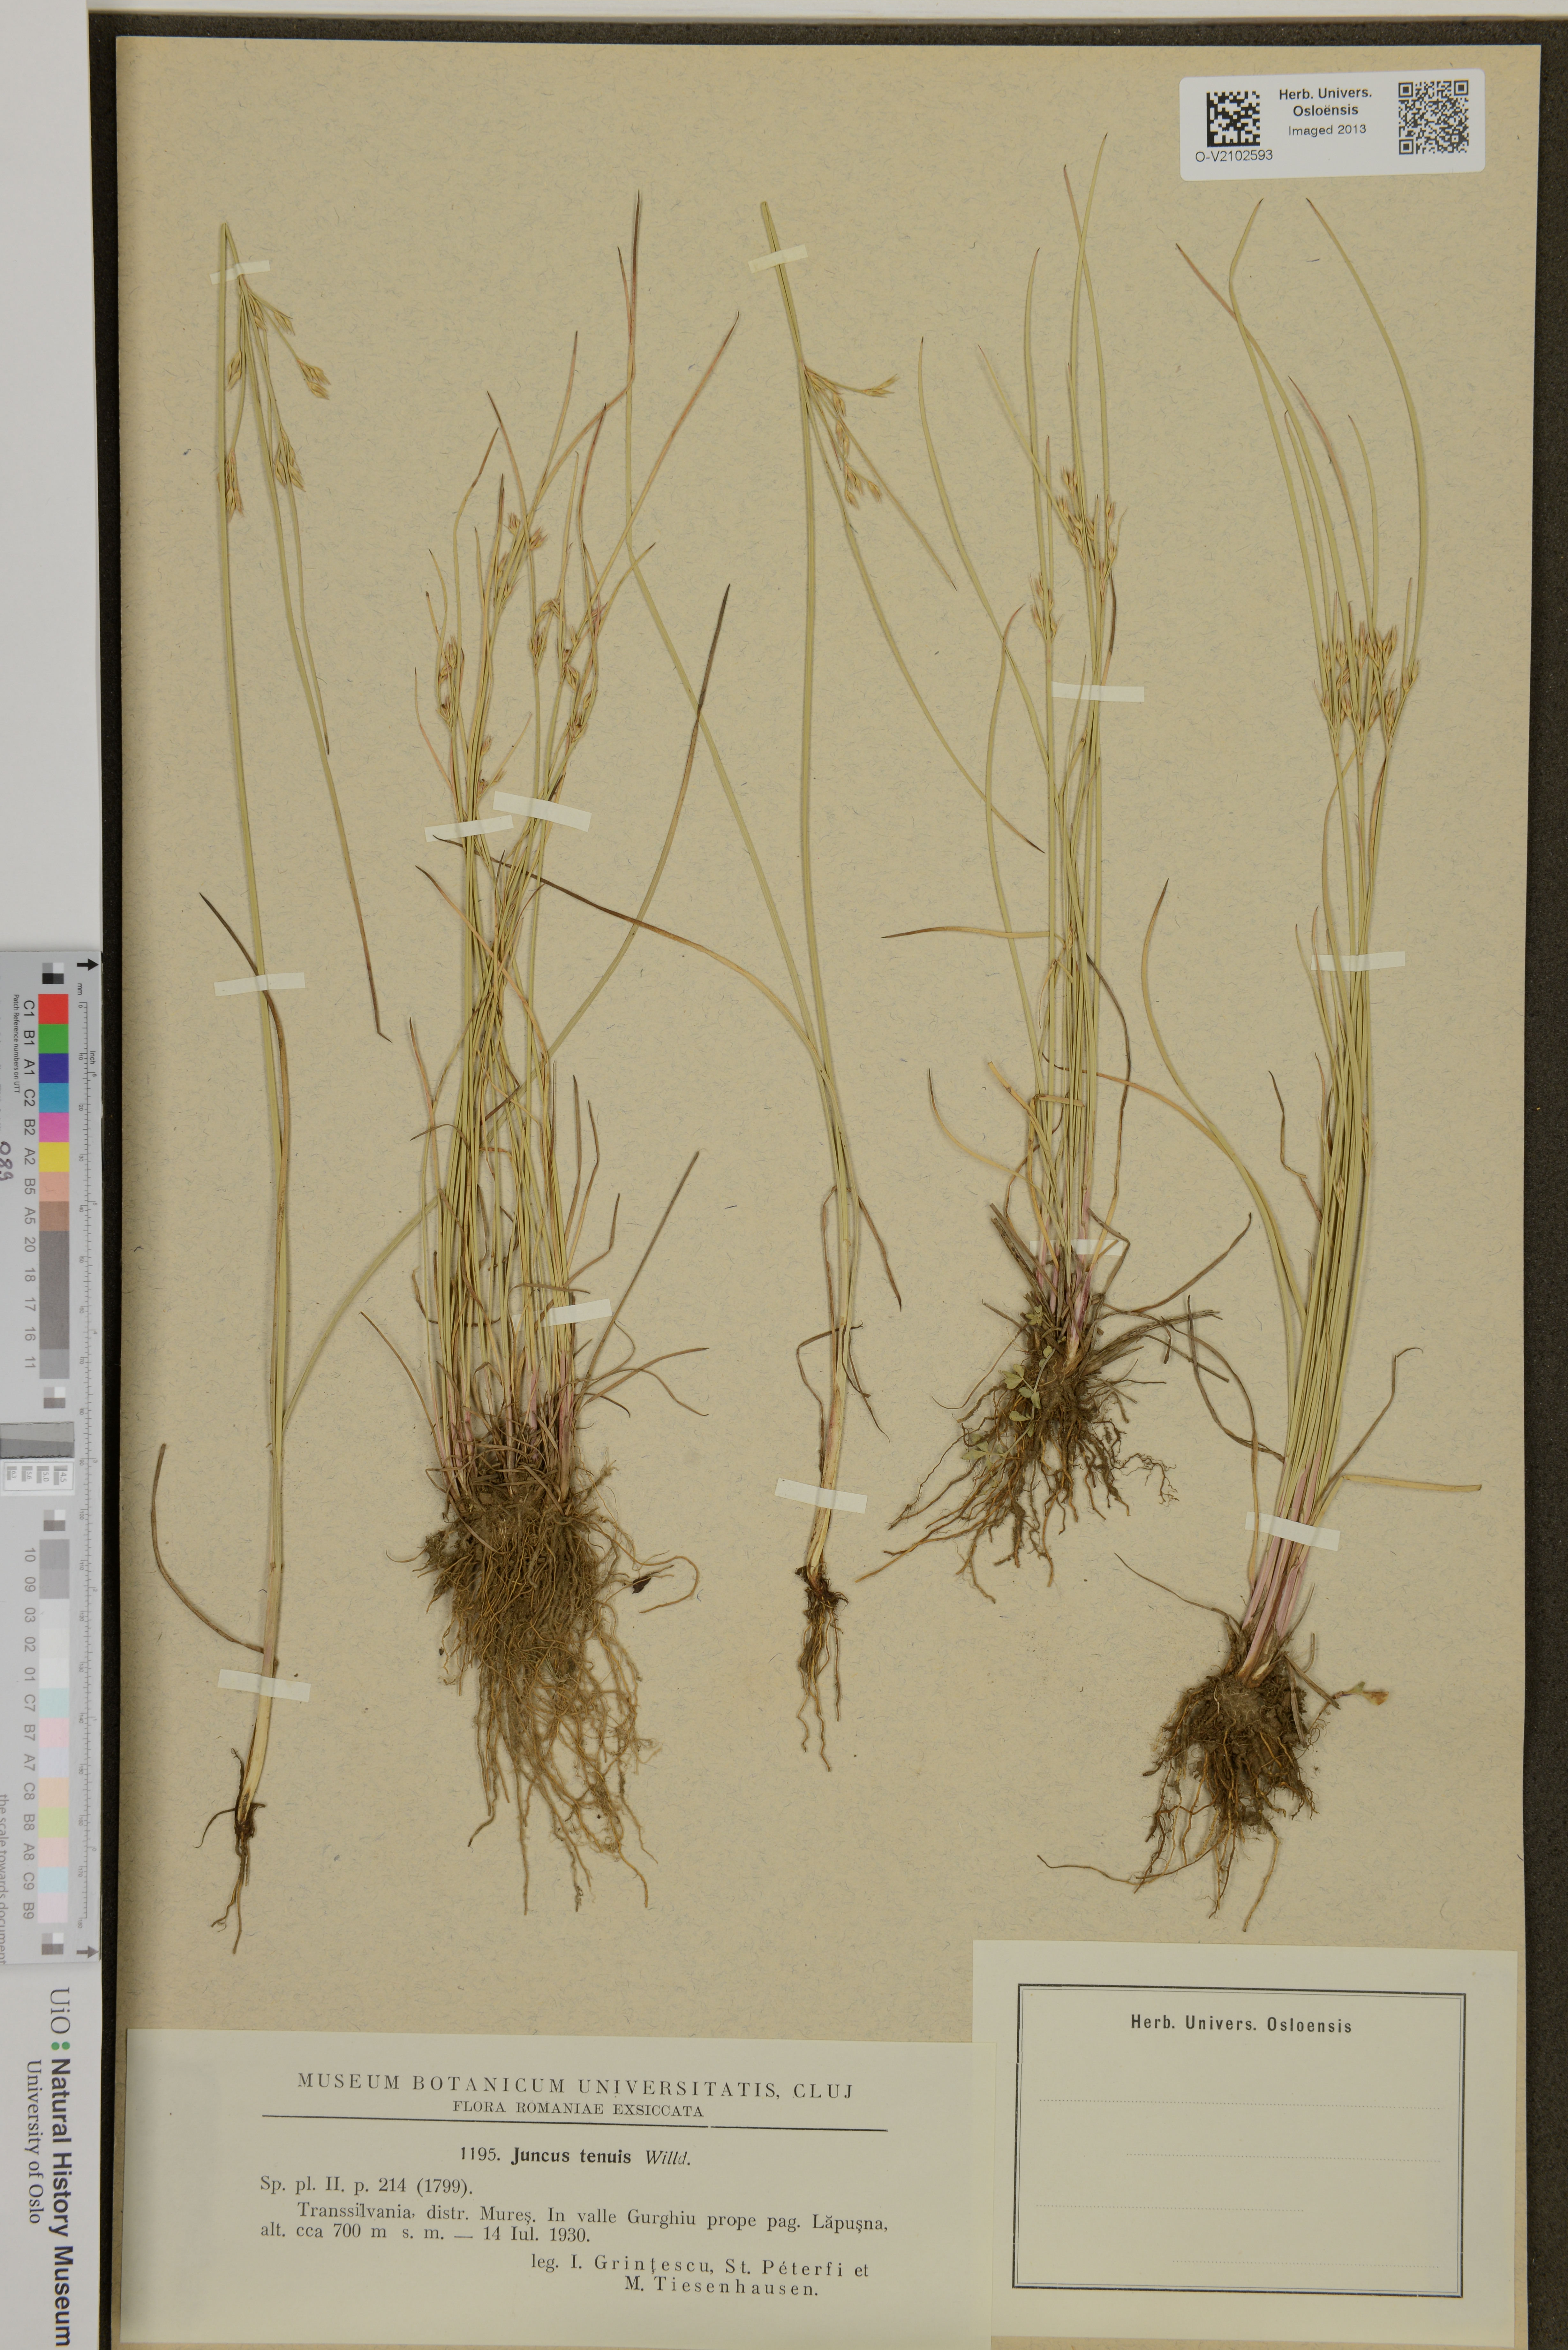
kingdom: Plantae
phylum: Tracheophyta
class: Liliopsida
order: Poales
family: Juncaceae
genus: Juncus
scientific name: Juncus tenuis
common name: Slender rush
